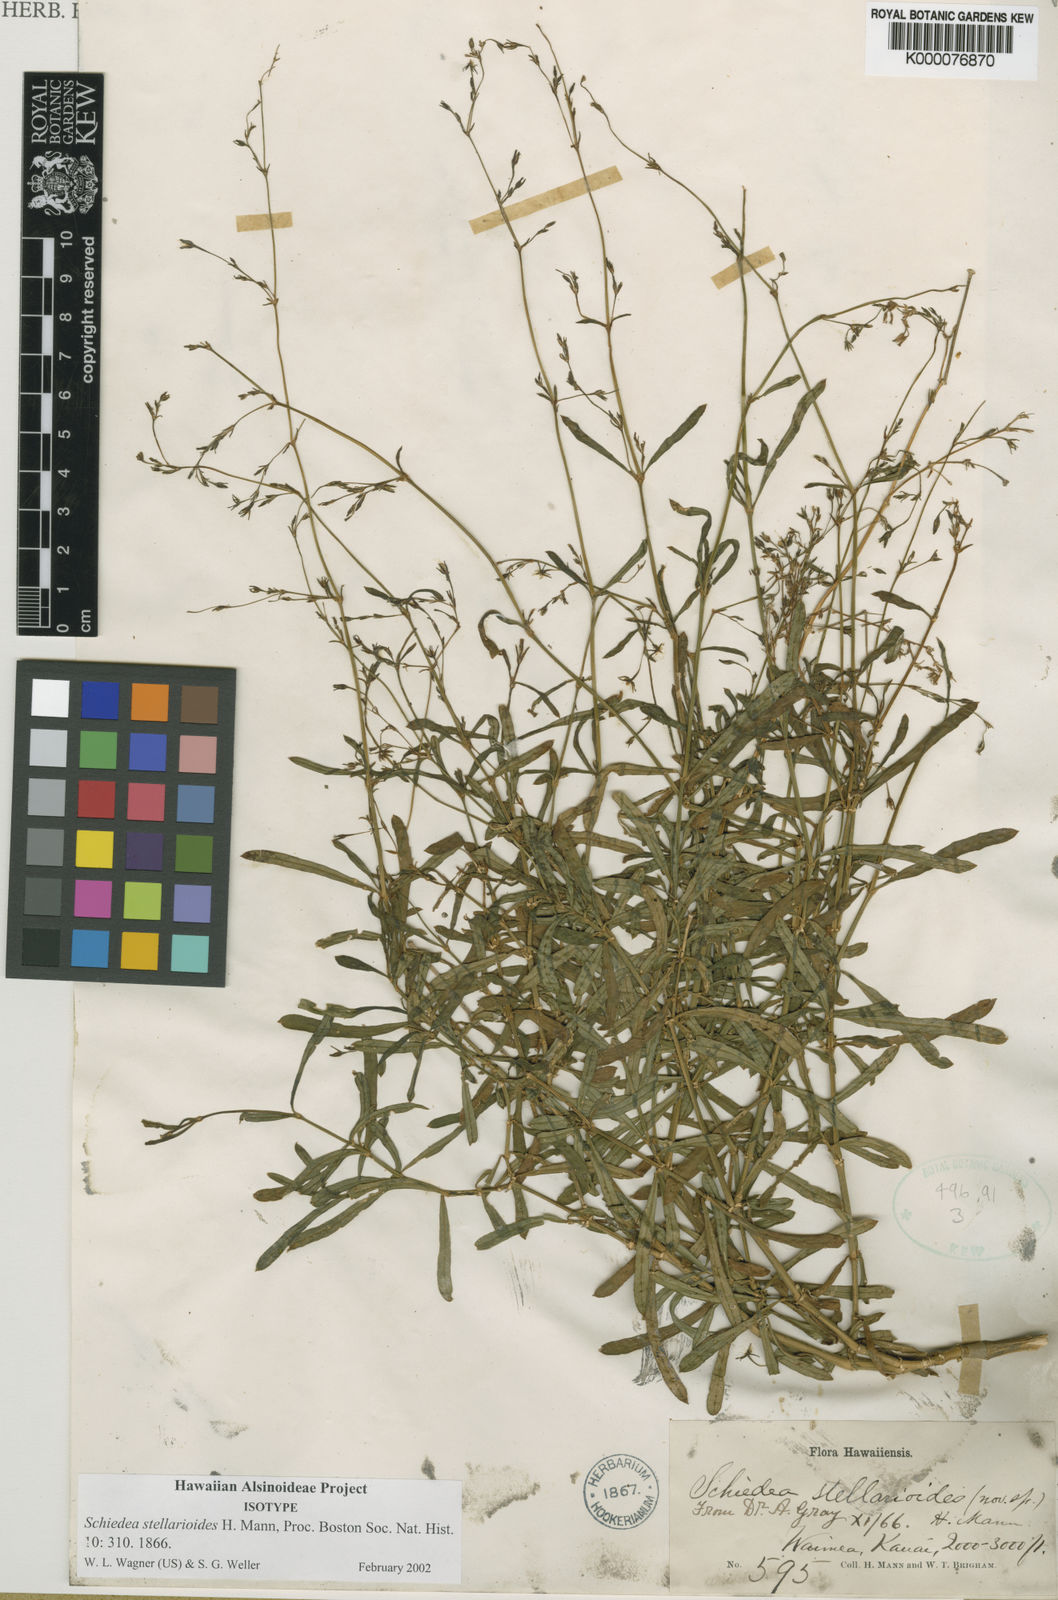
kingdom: Plantae
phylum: Tracheophyta
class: Magnoliopsida
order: Caryophyllales
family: Caryophyllaceae
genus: Schiedea
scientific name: Schiedea stellarioides
